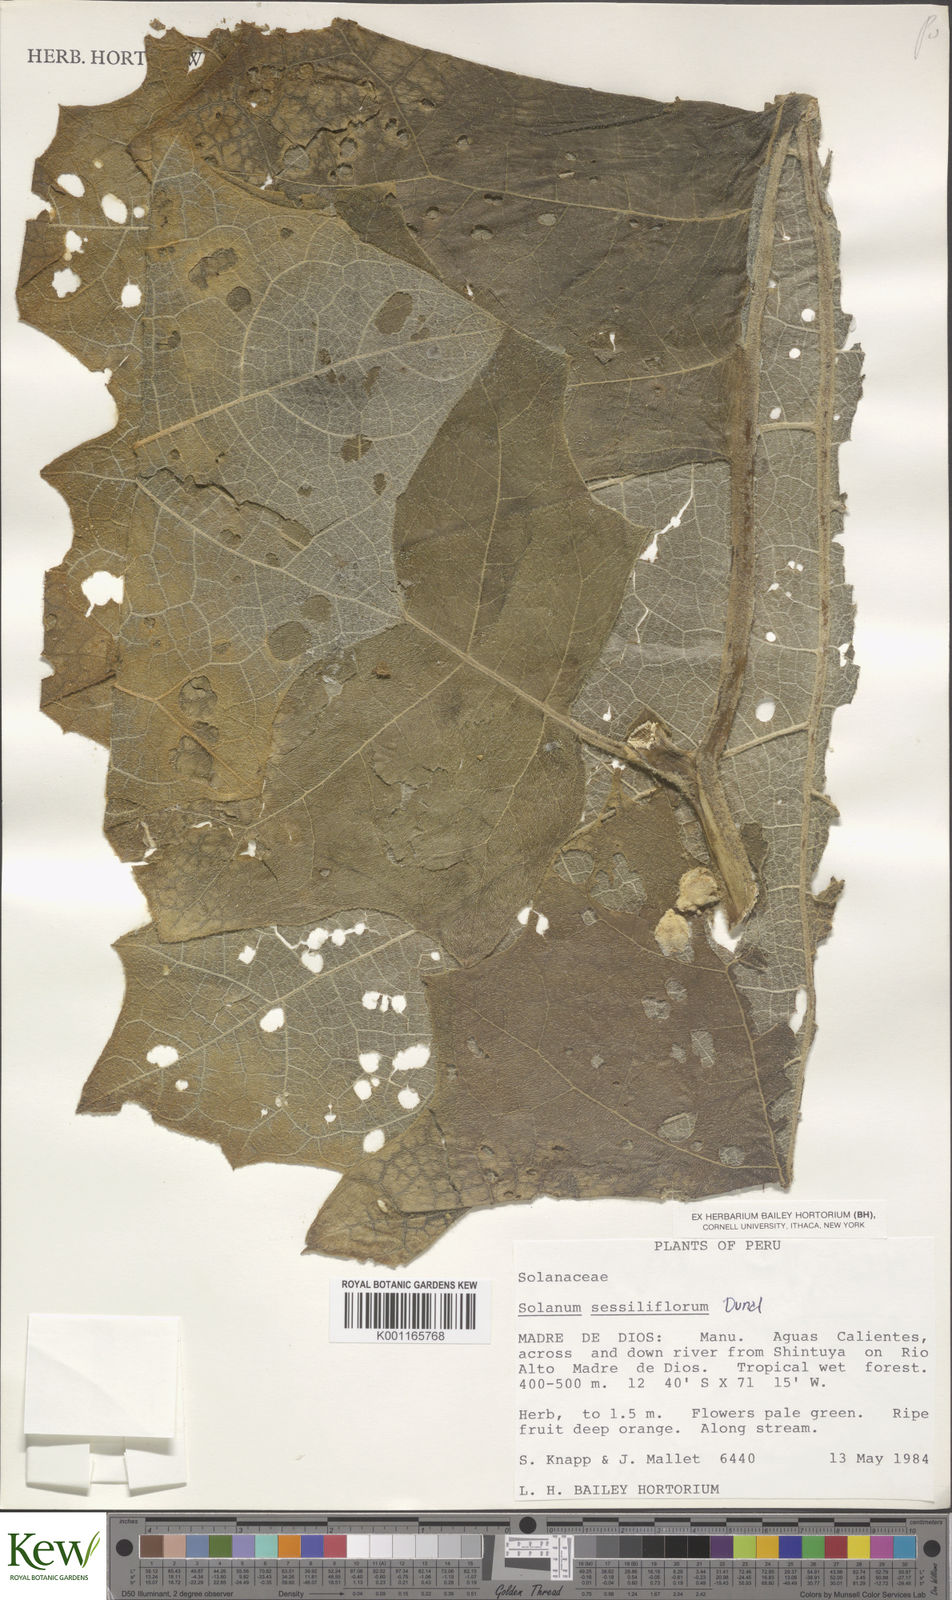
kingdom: Plantae
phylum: Tracheophyta
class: Magnoliopsida
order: Solanales
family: Solanaceae
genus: Solanum
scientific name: Solanum sessiliflorum
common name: Orinoco-apple
